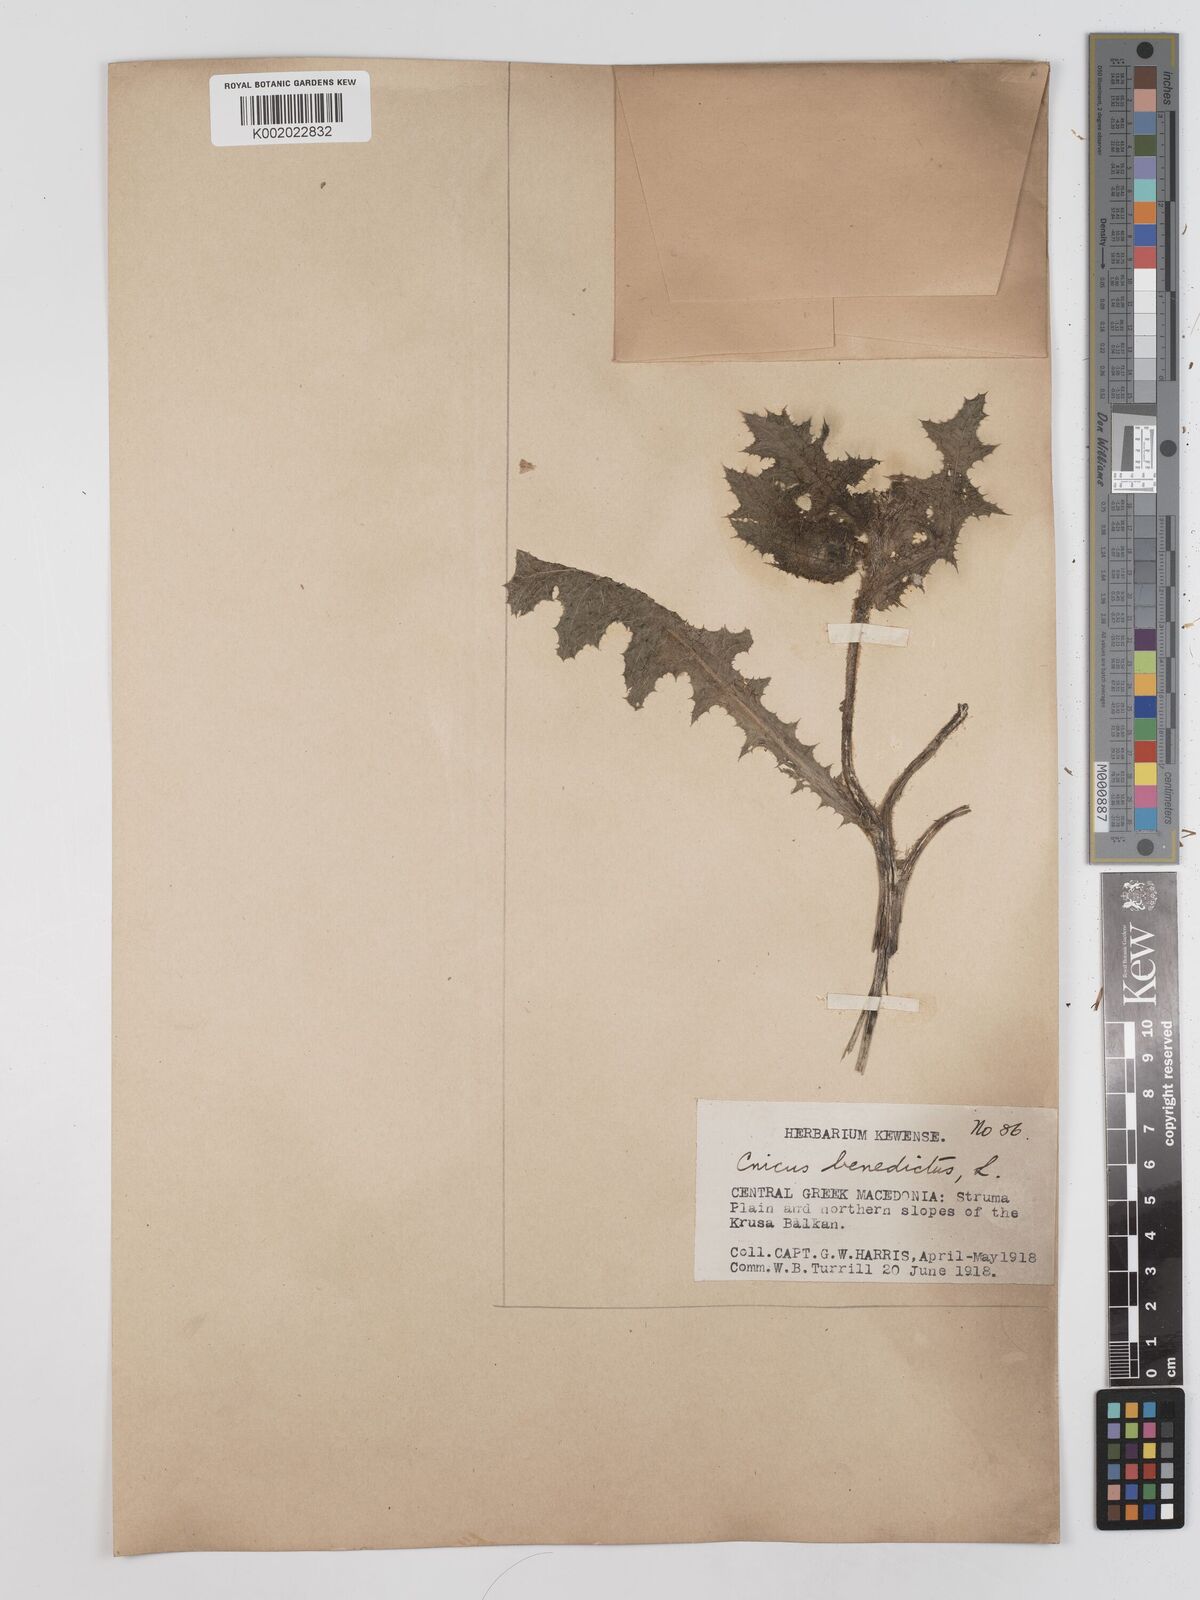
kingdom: Plantae
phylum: Tracheophyta
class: Magnoliopsida
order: Asterales
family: Asteraceae
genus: Centaurea
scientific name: Centaurea benedicta
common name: Blessed thistle
